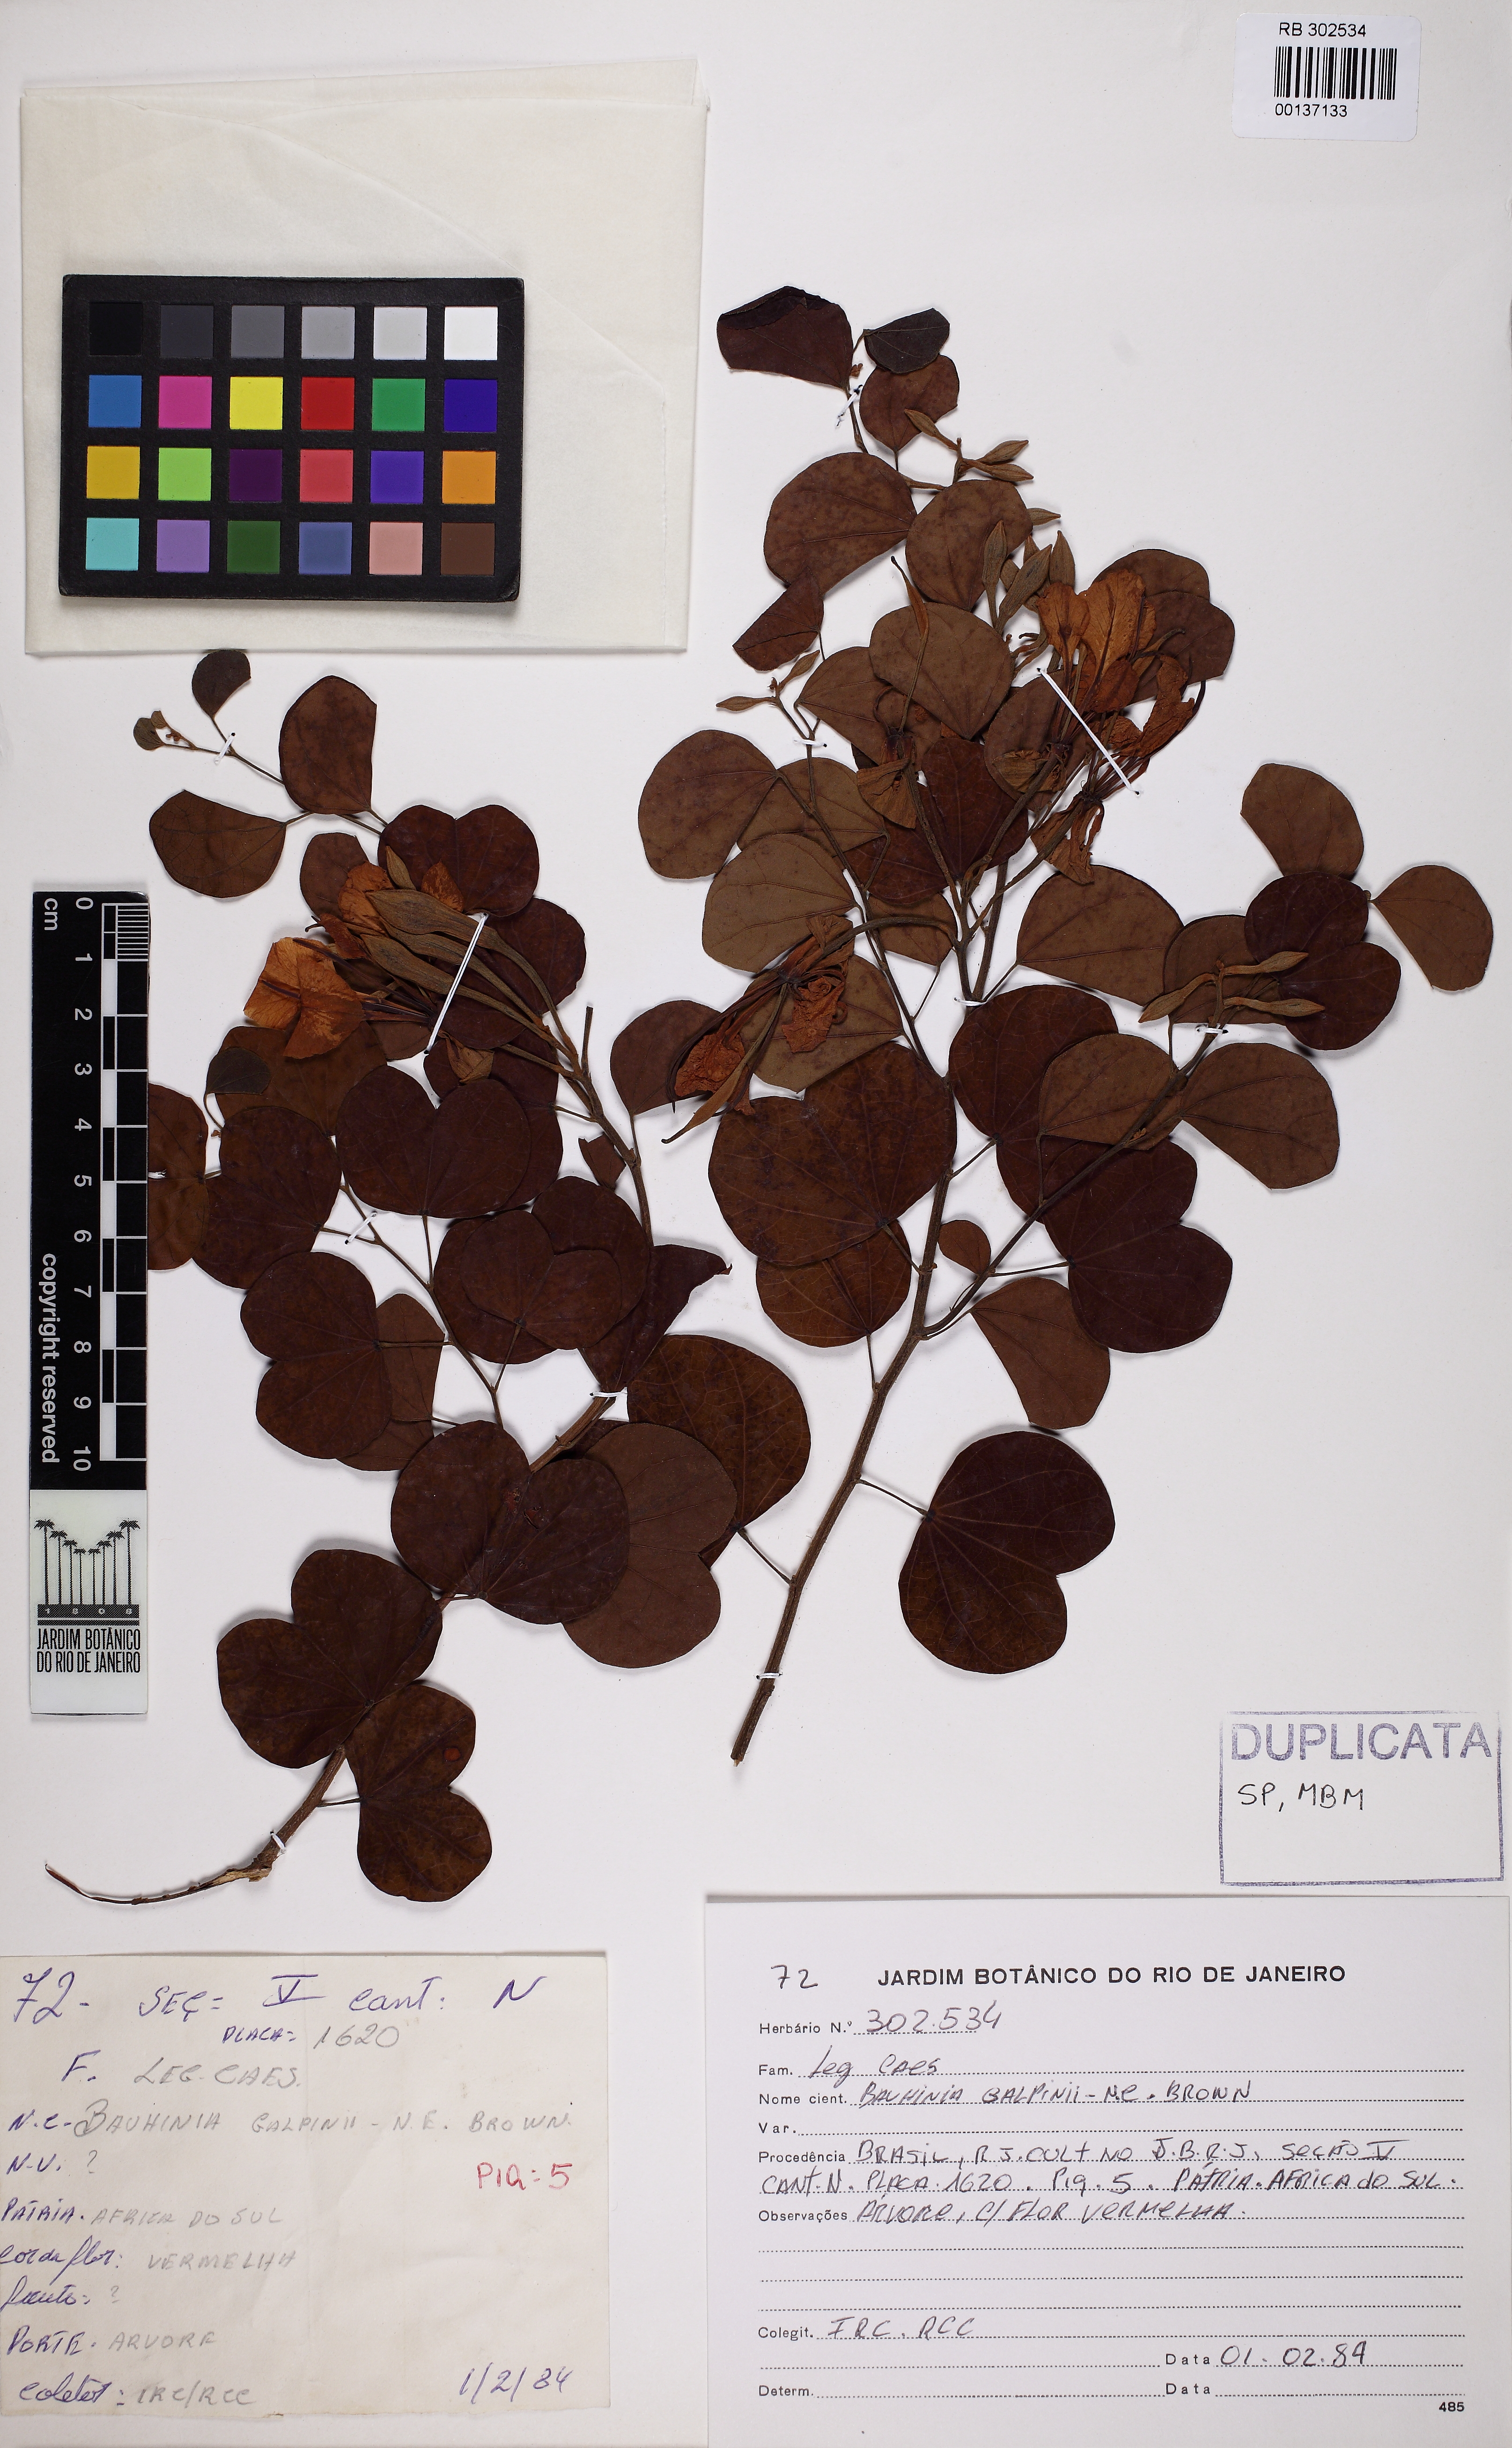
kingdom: Plantae
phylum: Tracheophyta
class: Magnoliopsida
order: Fabales
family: Fabaceae
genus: Bauhinia
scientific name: Bauhinia galpinii
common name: African plume
